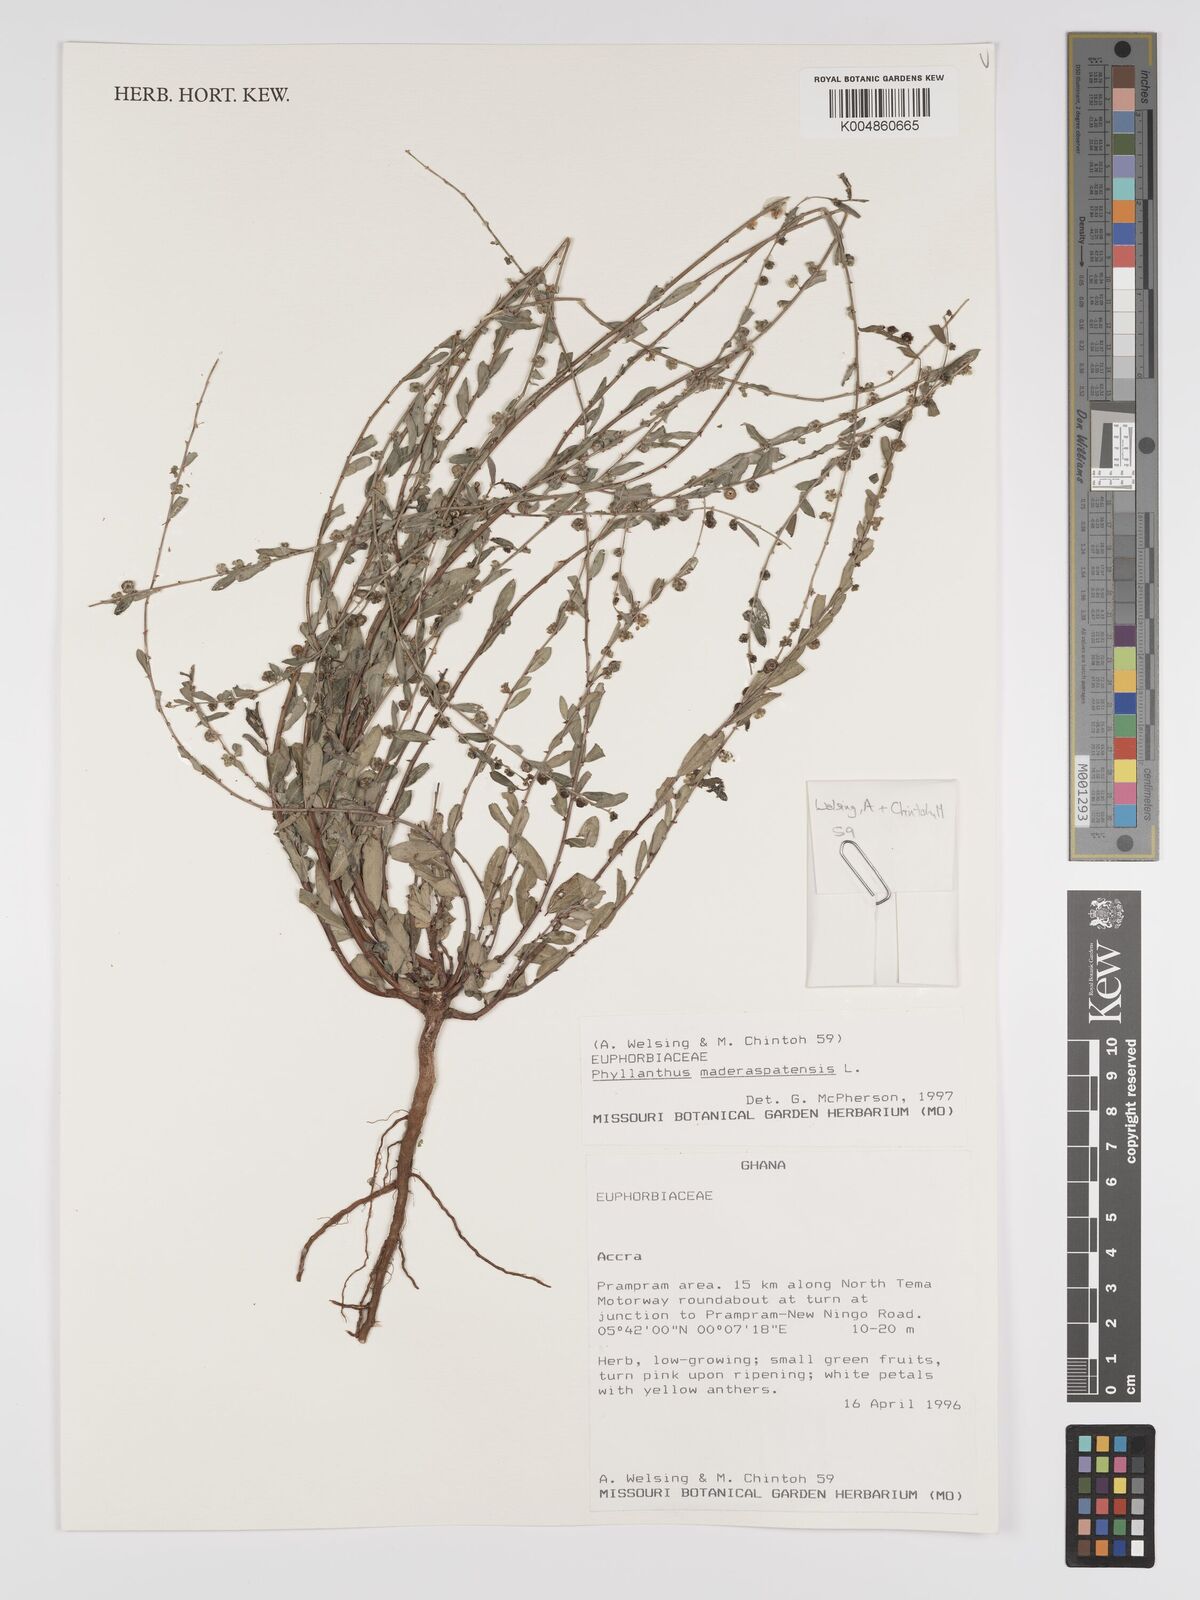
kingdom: Plantae
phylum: Tracheophyta
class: Magnoliopsida
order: Malpighiales
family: Phyllanthaceae
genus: Phyllanthus
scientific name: Phyllanthus
